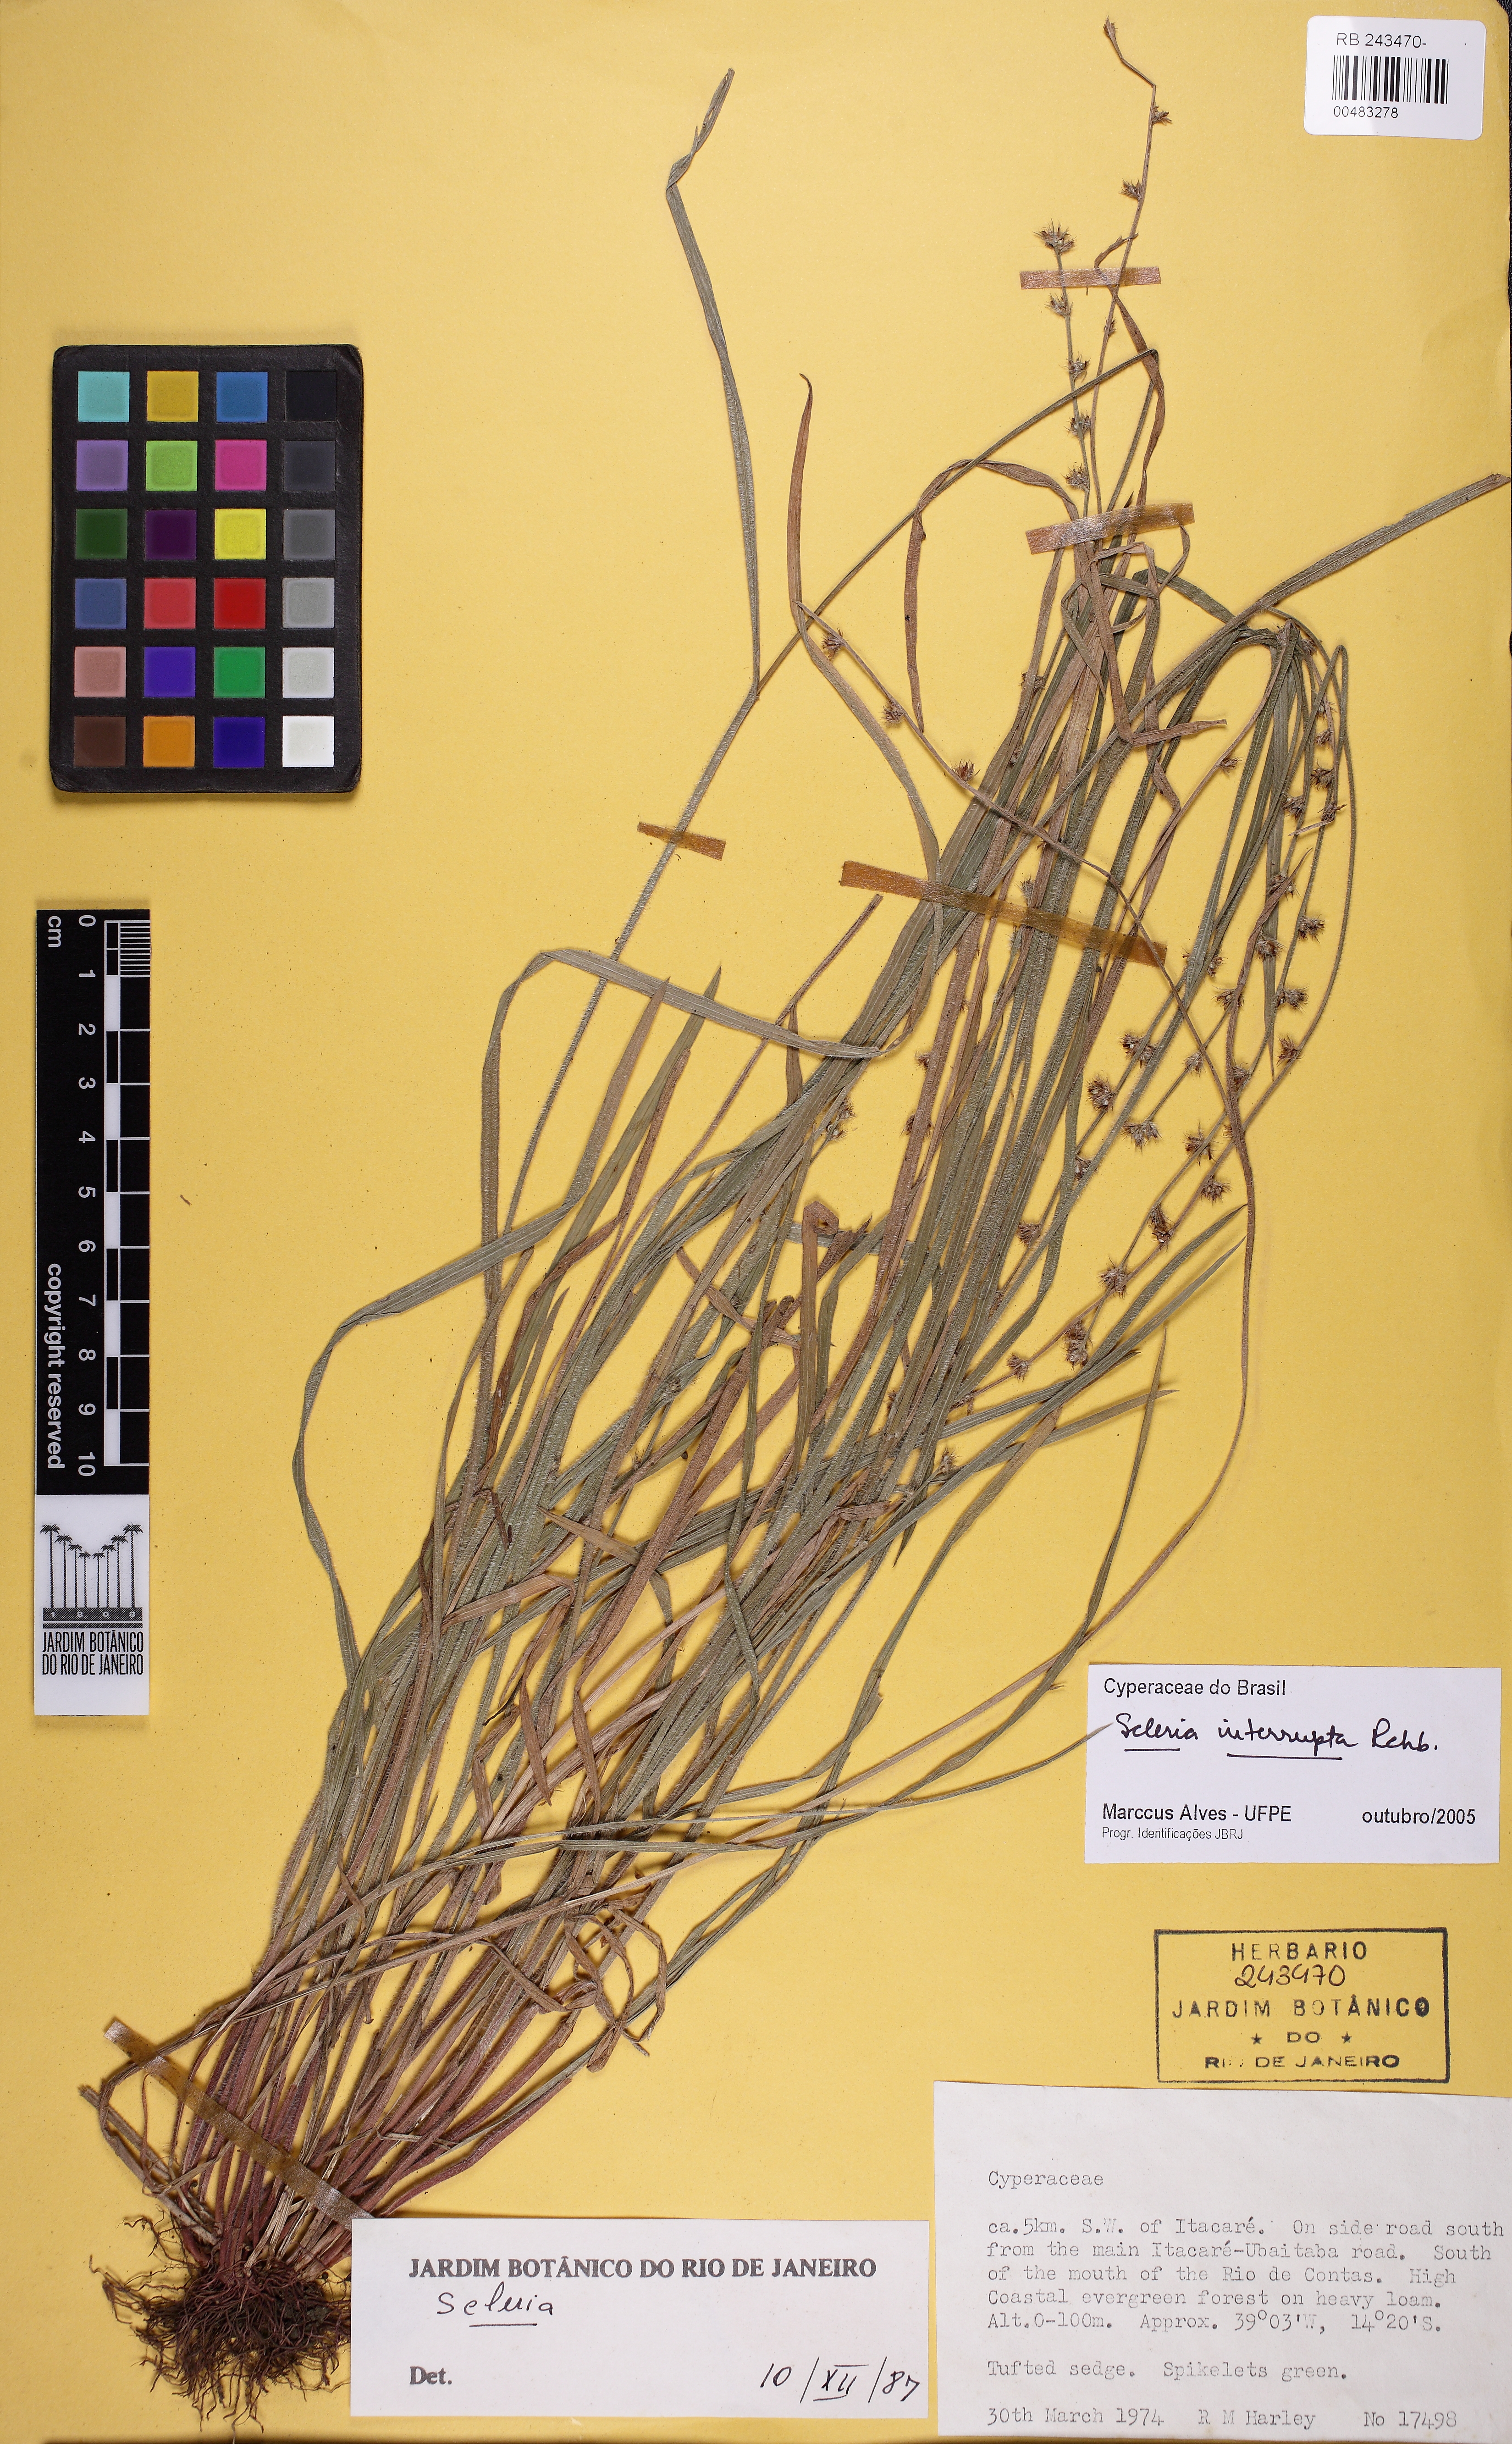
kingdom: Plantae
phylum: Tracheophyta
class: Liliopsida
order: Poales
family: Cyperaceae
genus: Scleria
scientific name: Scleria distans
